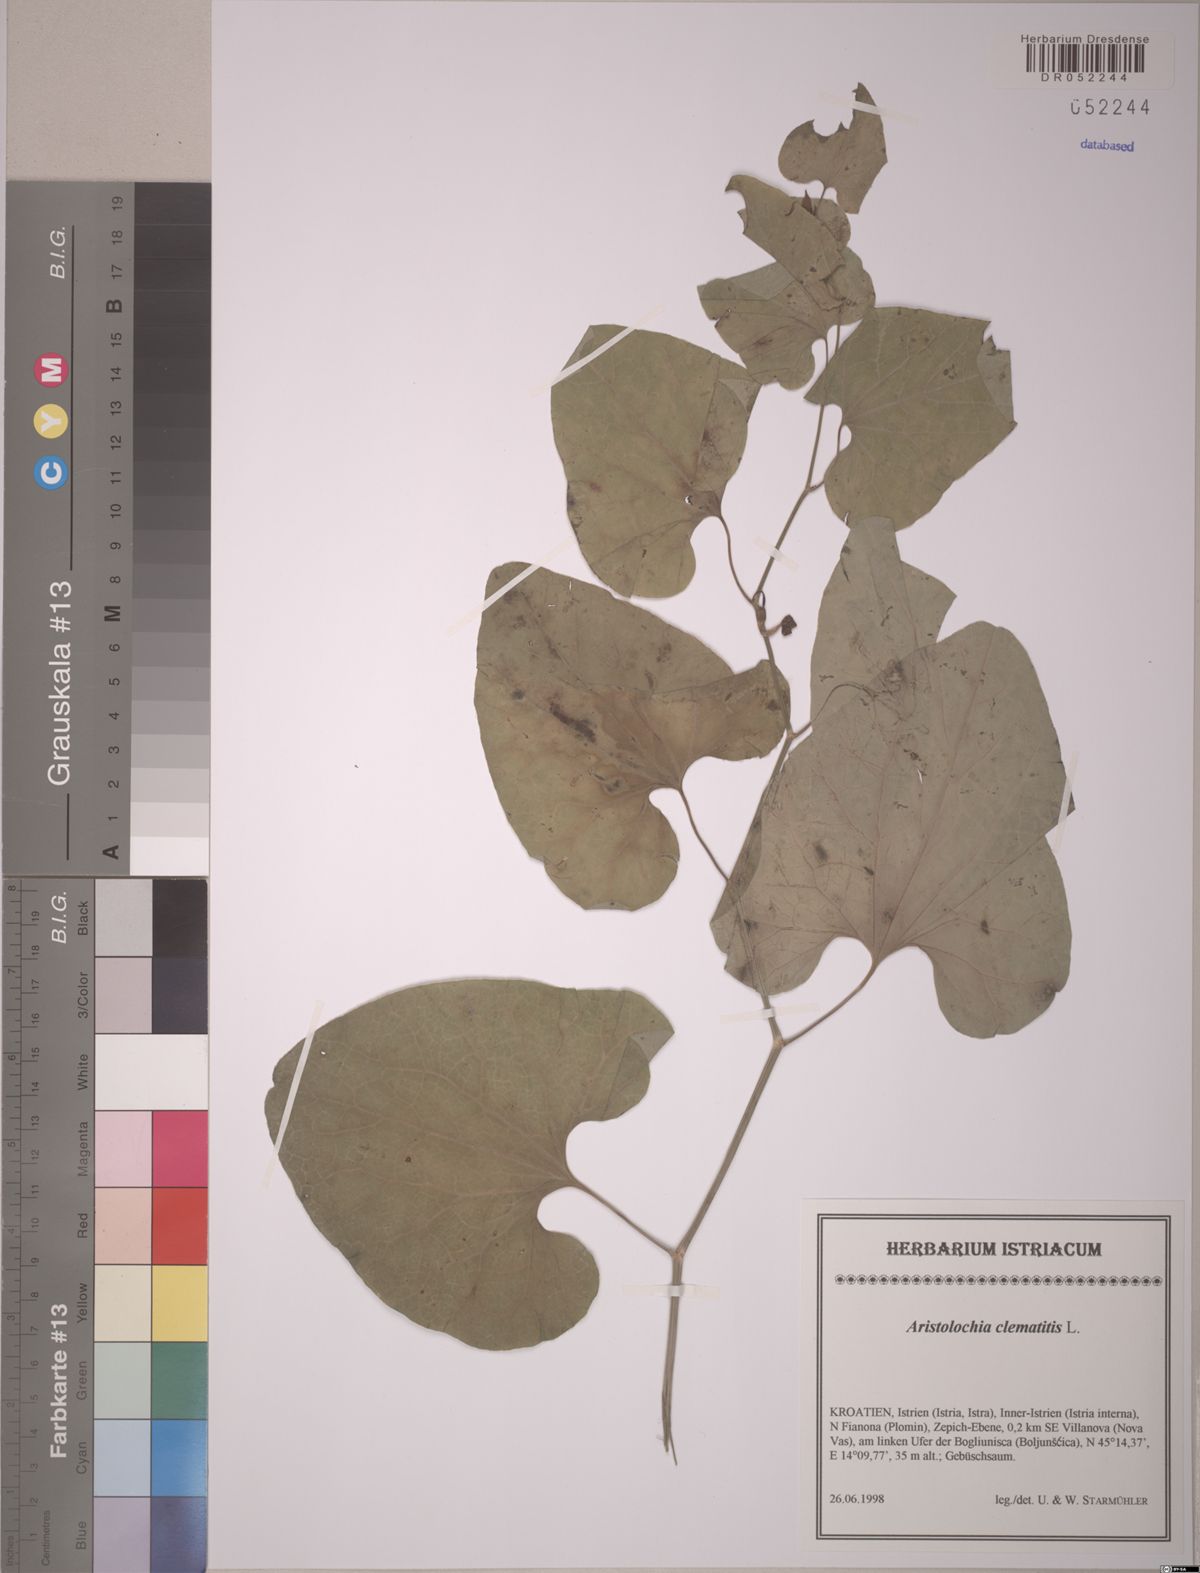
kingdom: Plantae
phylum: Tracheophyta
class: Magnoliopsida
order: Piperales
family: Aristolochiaceae
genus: Aristolochia
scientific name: Aristolochia clematitis
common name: Birthwort
